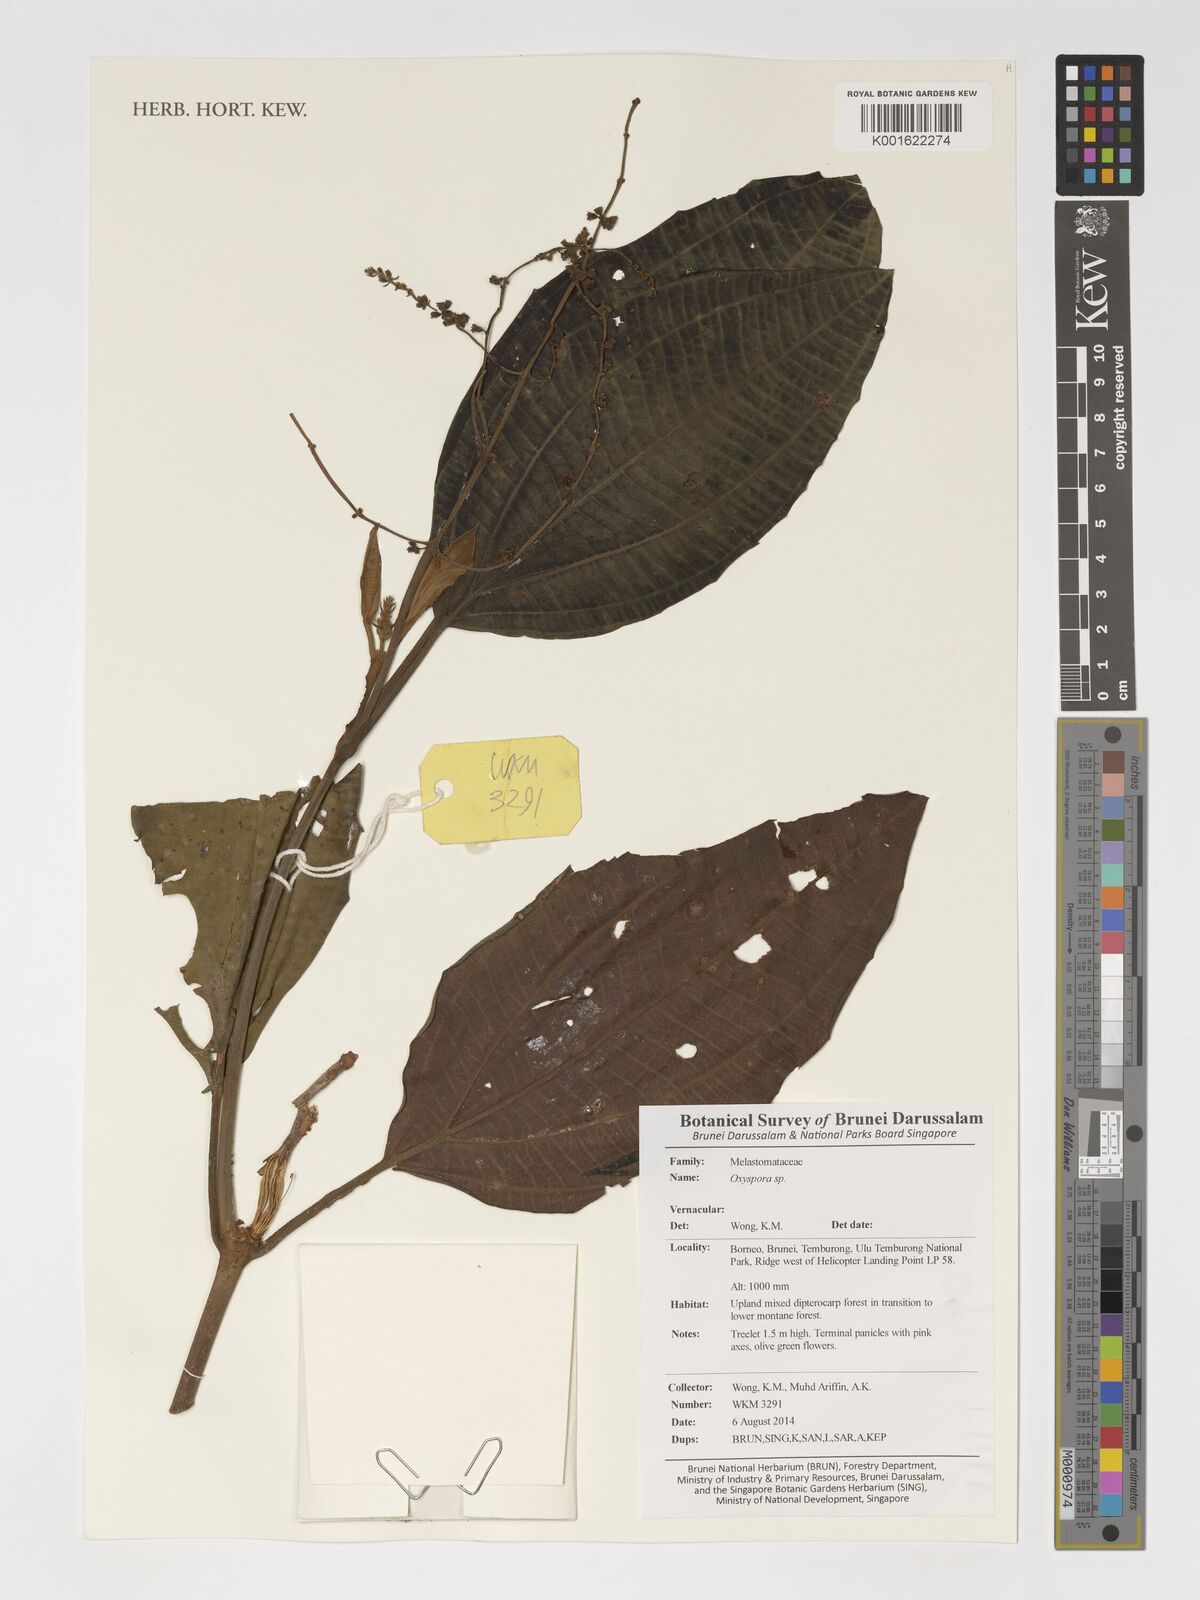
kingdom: Plantae
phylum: Tracheophyta
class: Magnoliopsida
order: Myrtales
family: Melastomataceae
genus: Oxyspora
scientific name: Oxyspora
